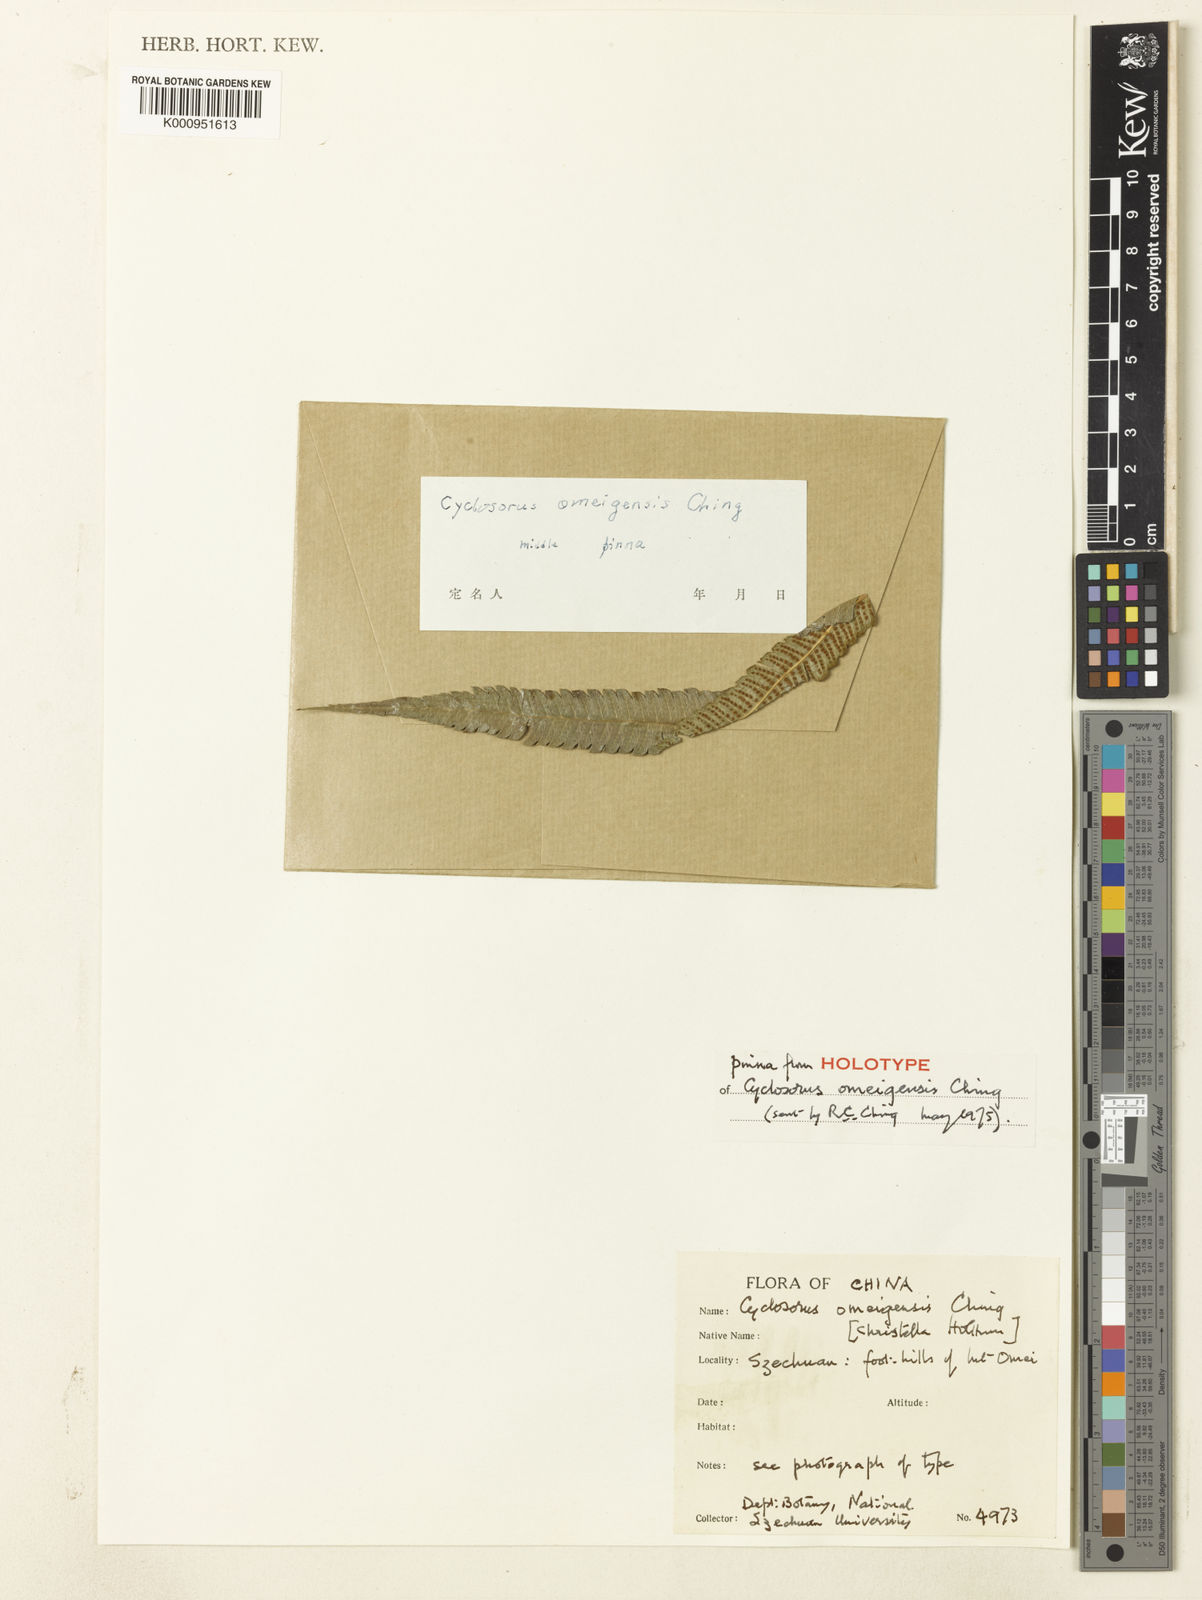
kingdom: Plantae
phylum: Tracheophyta
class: Polypodiopsida
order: Polypodiales
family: Thelypteridaceae
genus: Christella
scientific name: Christella omeigensis
